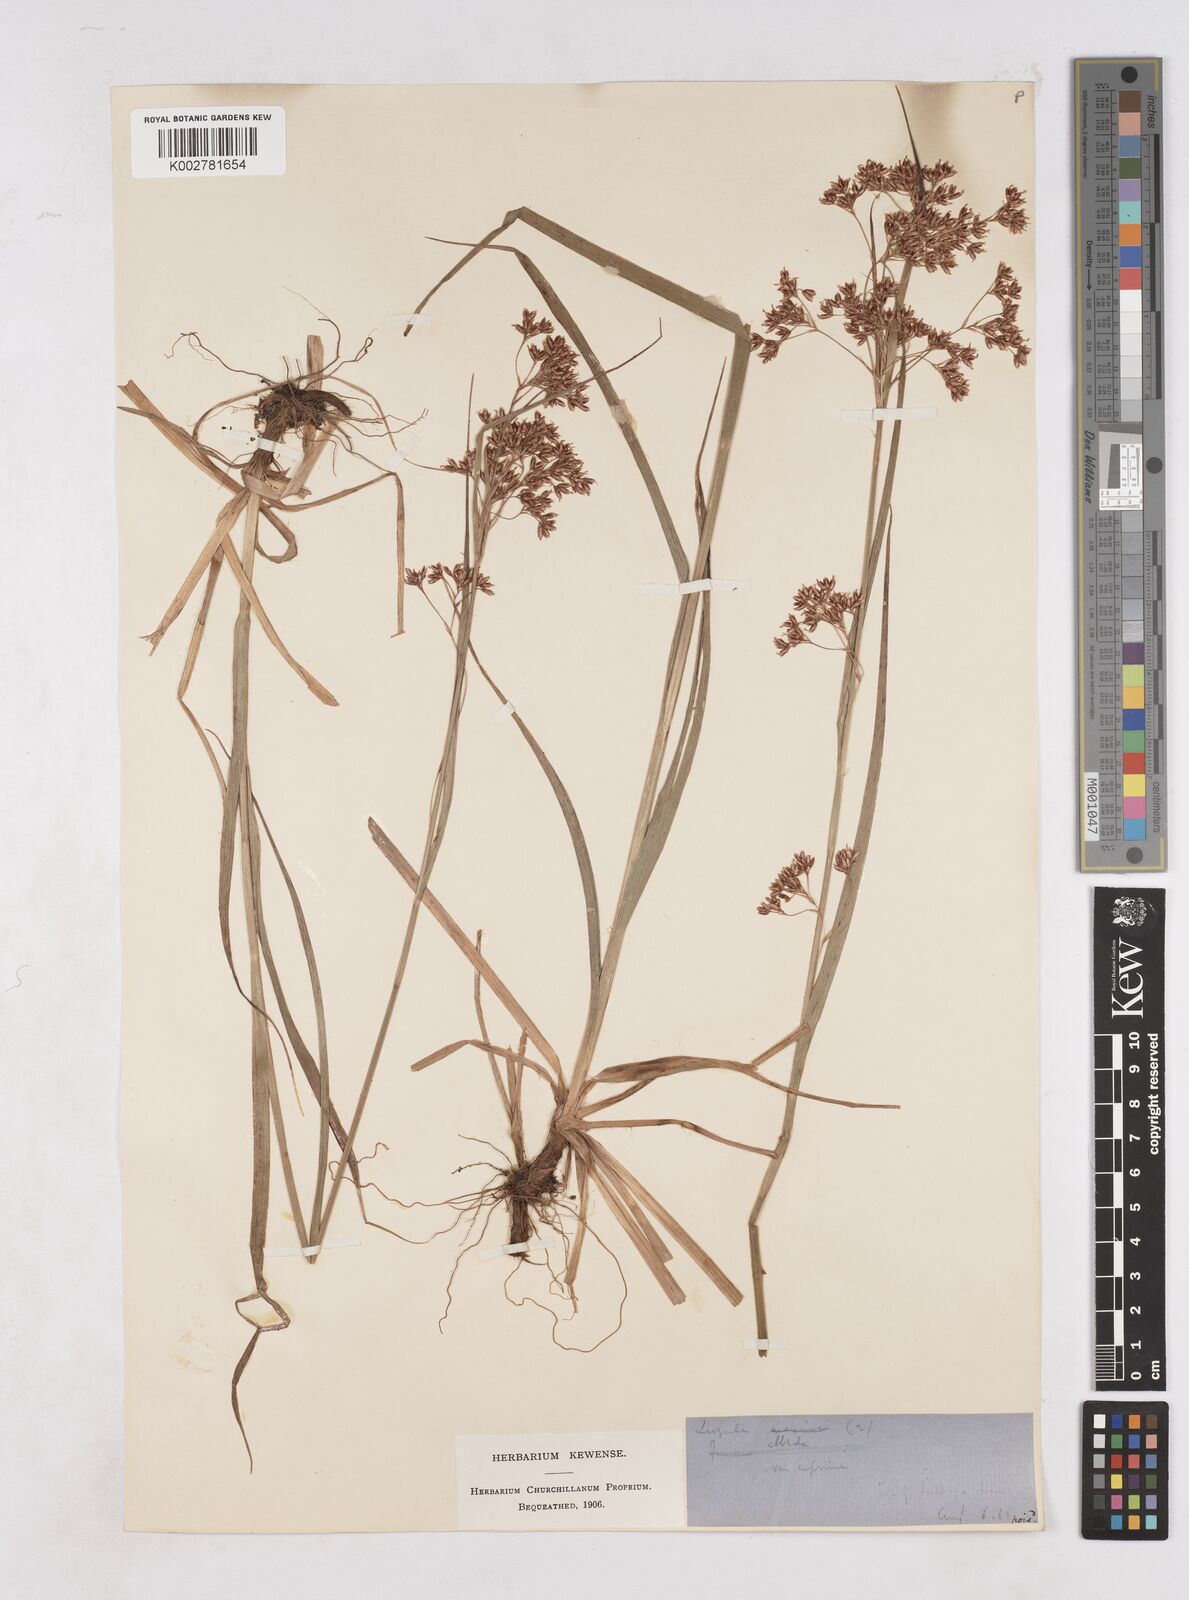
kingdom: Plantae
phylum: Tracheophyta
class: Liliopsida
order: Poales
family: Juncaceae
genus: Luzula
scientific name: Luzula luzuloides
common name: White wood-rush
